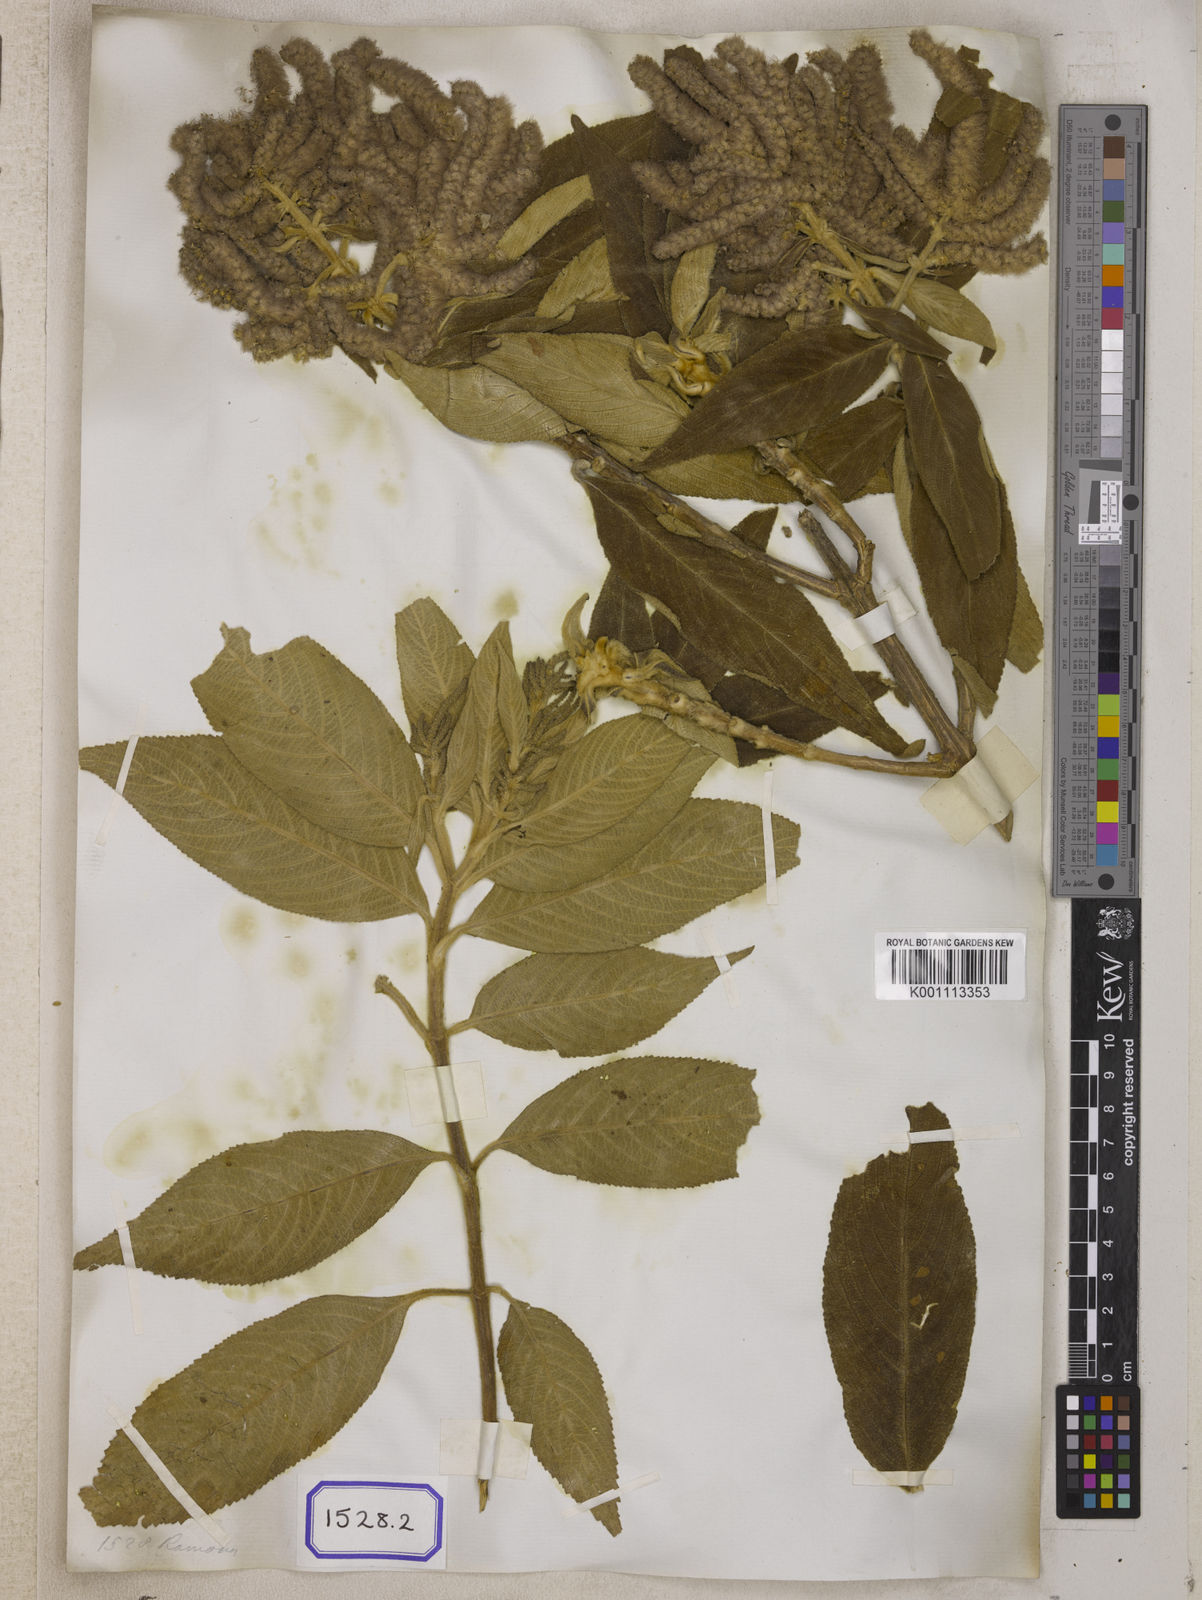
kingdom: Plantae
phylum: Tracheophyta
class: Magnoliopsida
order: Lamiales
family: Lamiaceae
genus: Colebrookea
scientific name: Colebrookea
